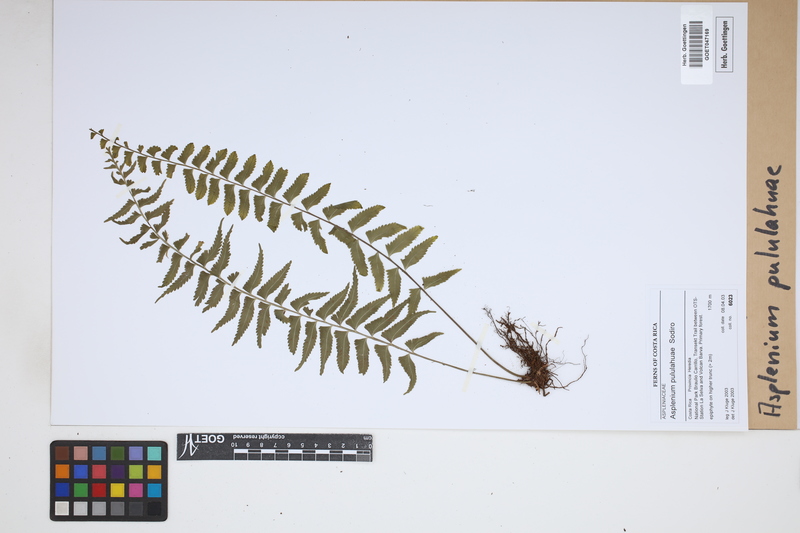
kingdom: Plantae
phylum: Tracheophyta
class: Polypodiopsida
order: Polypodiales
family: Aspleniaceae
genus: Asplenium
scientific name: Asplenium pululahuae
